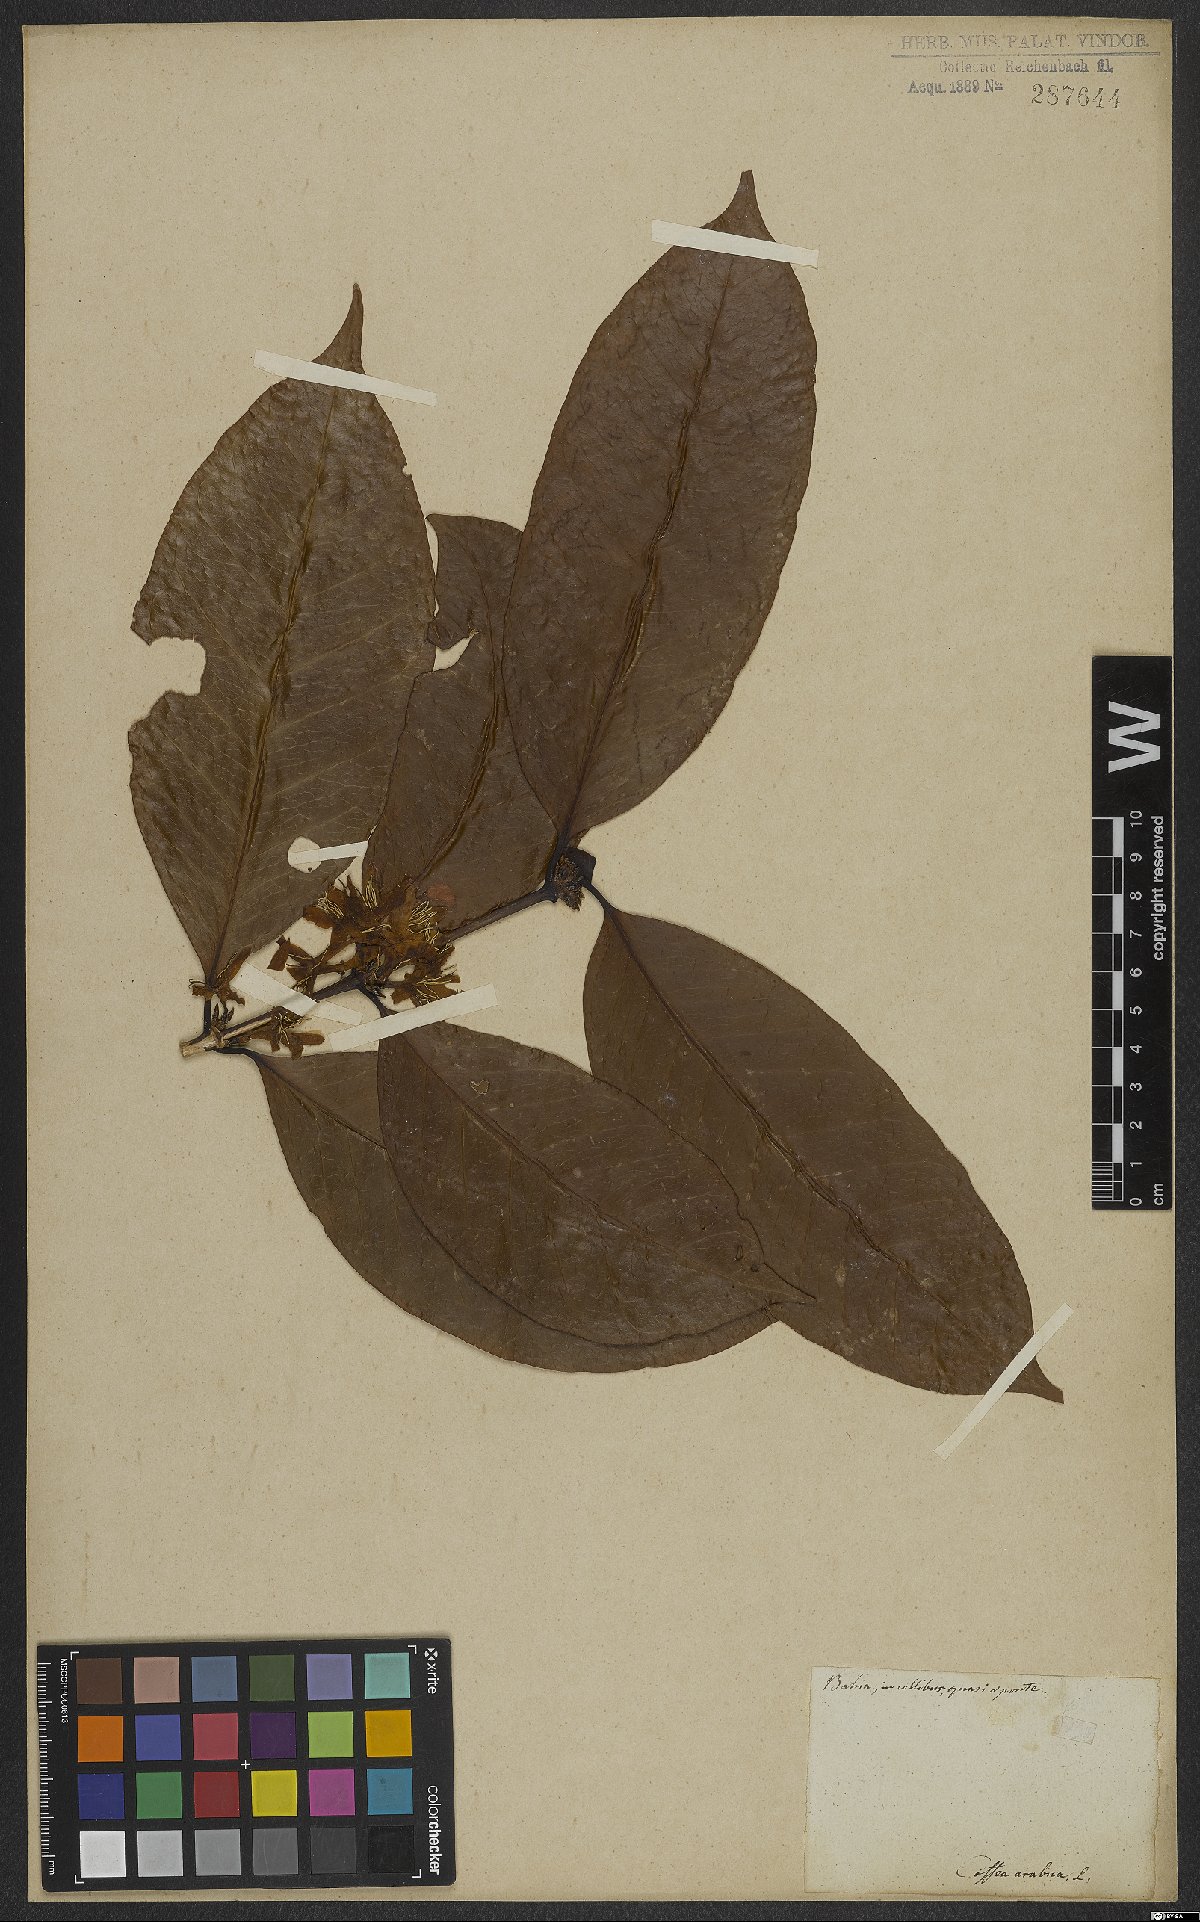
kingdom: Plantae
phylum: Tracheophyta
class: Magnoliopsida
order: Gentianales
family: Rubiaceae
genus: Coffea
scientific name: Coffea arabica
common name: Coffee
